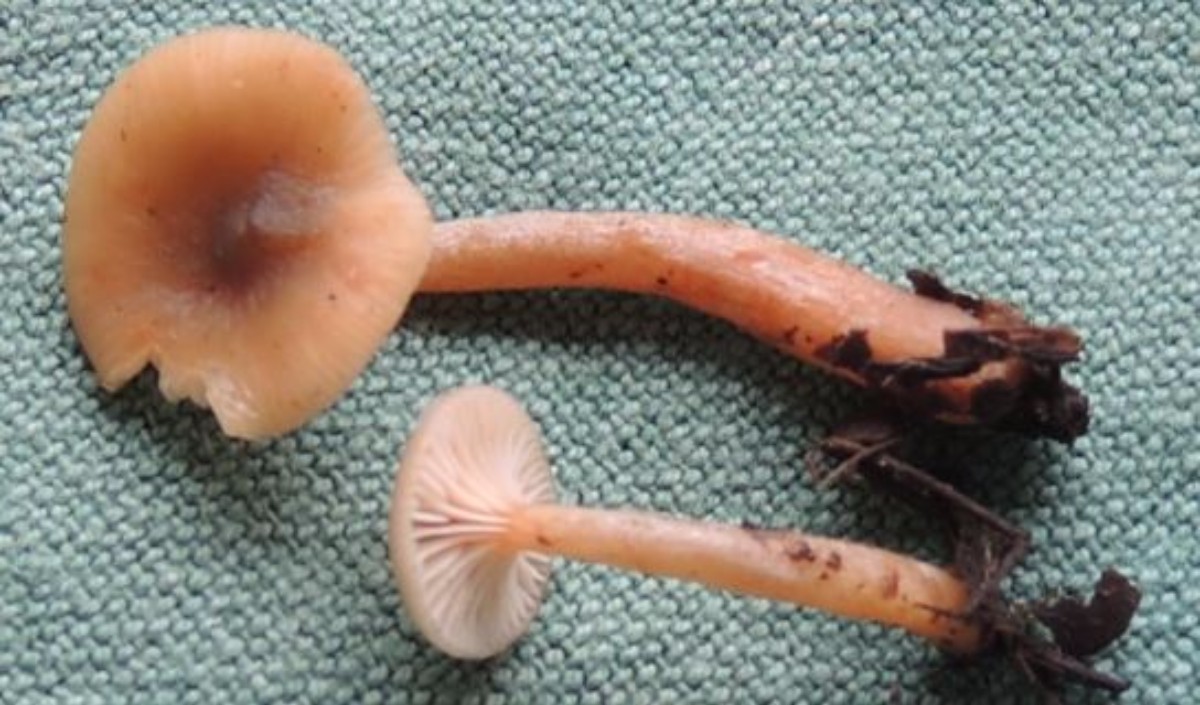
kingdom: Fungi
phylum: Basidiomycota
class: Agaricomycetes
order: Russulales
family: Russulaceae
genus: Lactarius
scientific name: Lactarius cyathuliformis
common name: mørkøjet mælkehat
